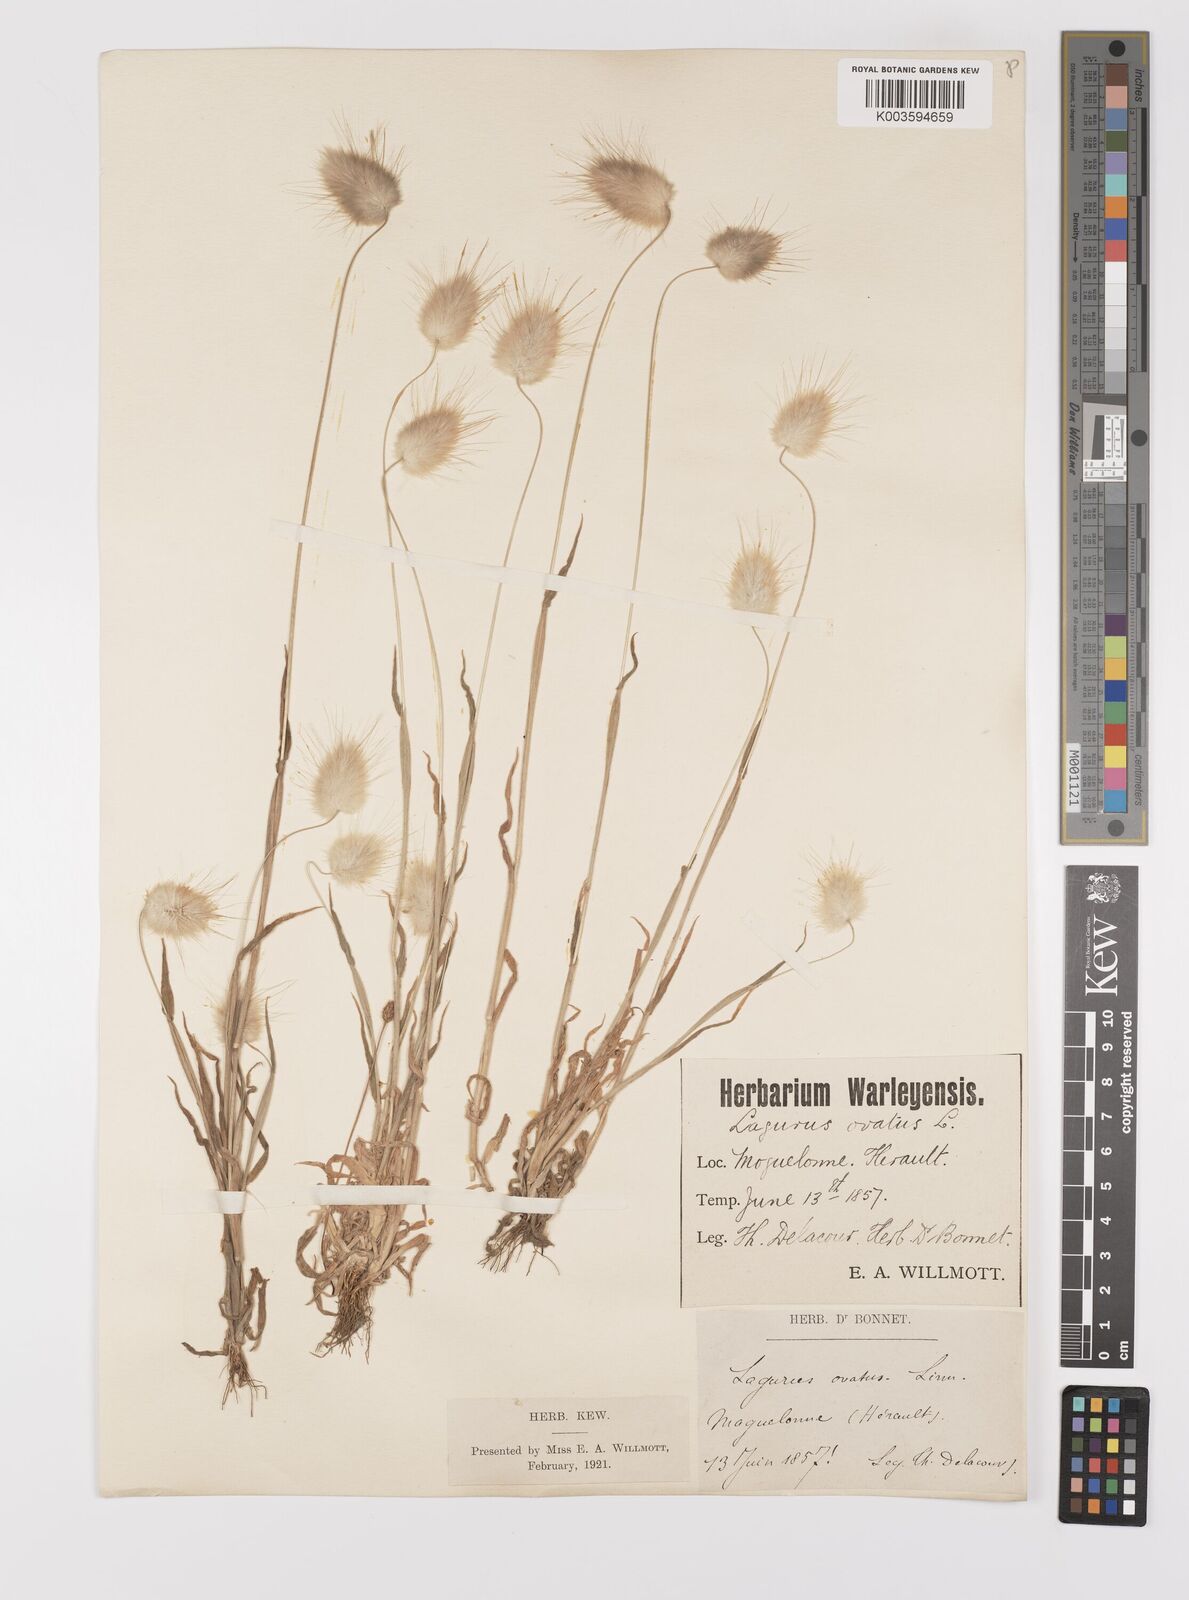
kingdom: Plantae
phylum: Tracheophyta
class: Liliopsida
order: Poales
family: Poaceae
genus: Lagurus
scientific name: Lagurus ovatus
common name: Hare's-tail
